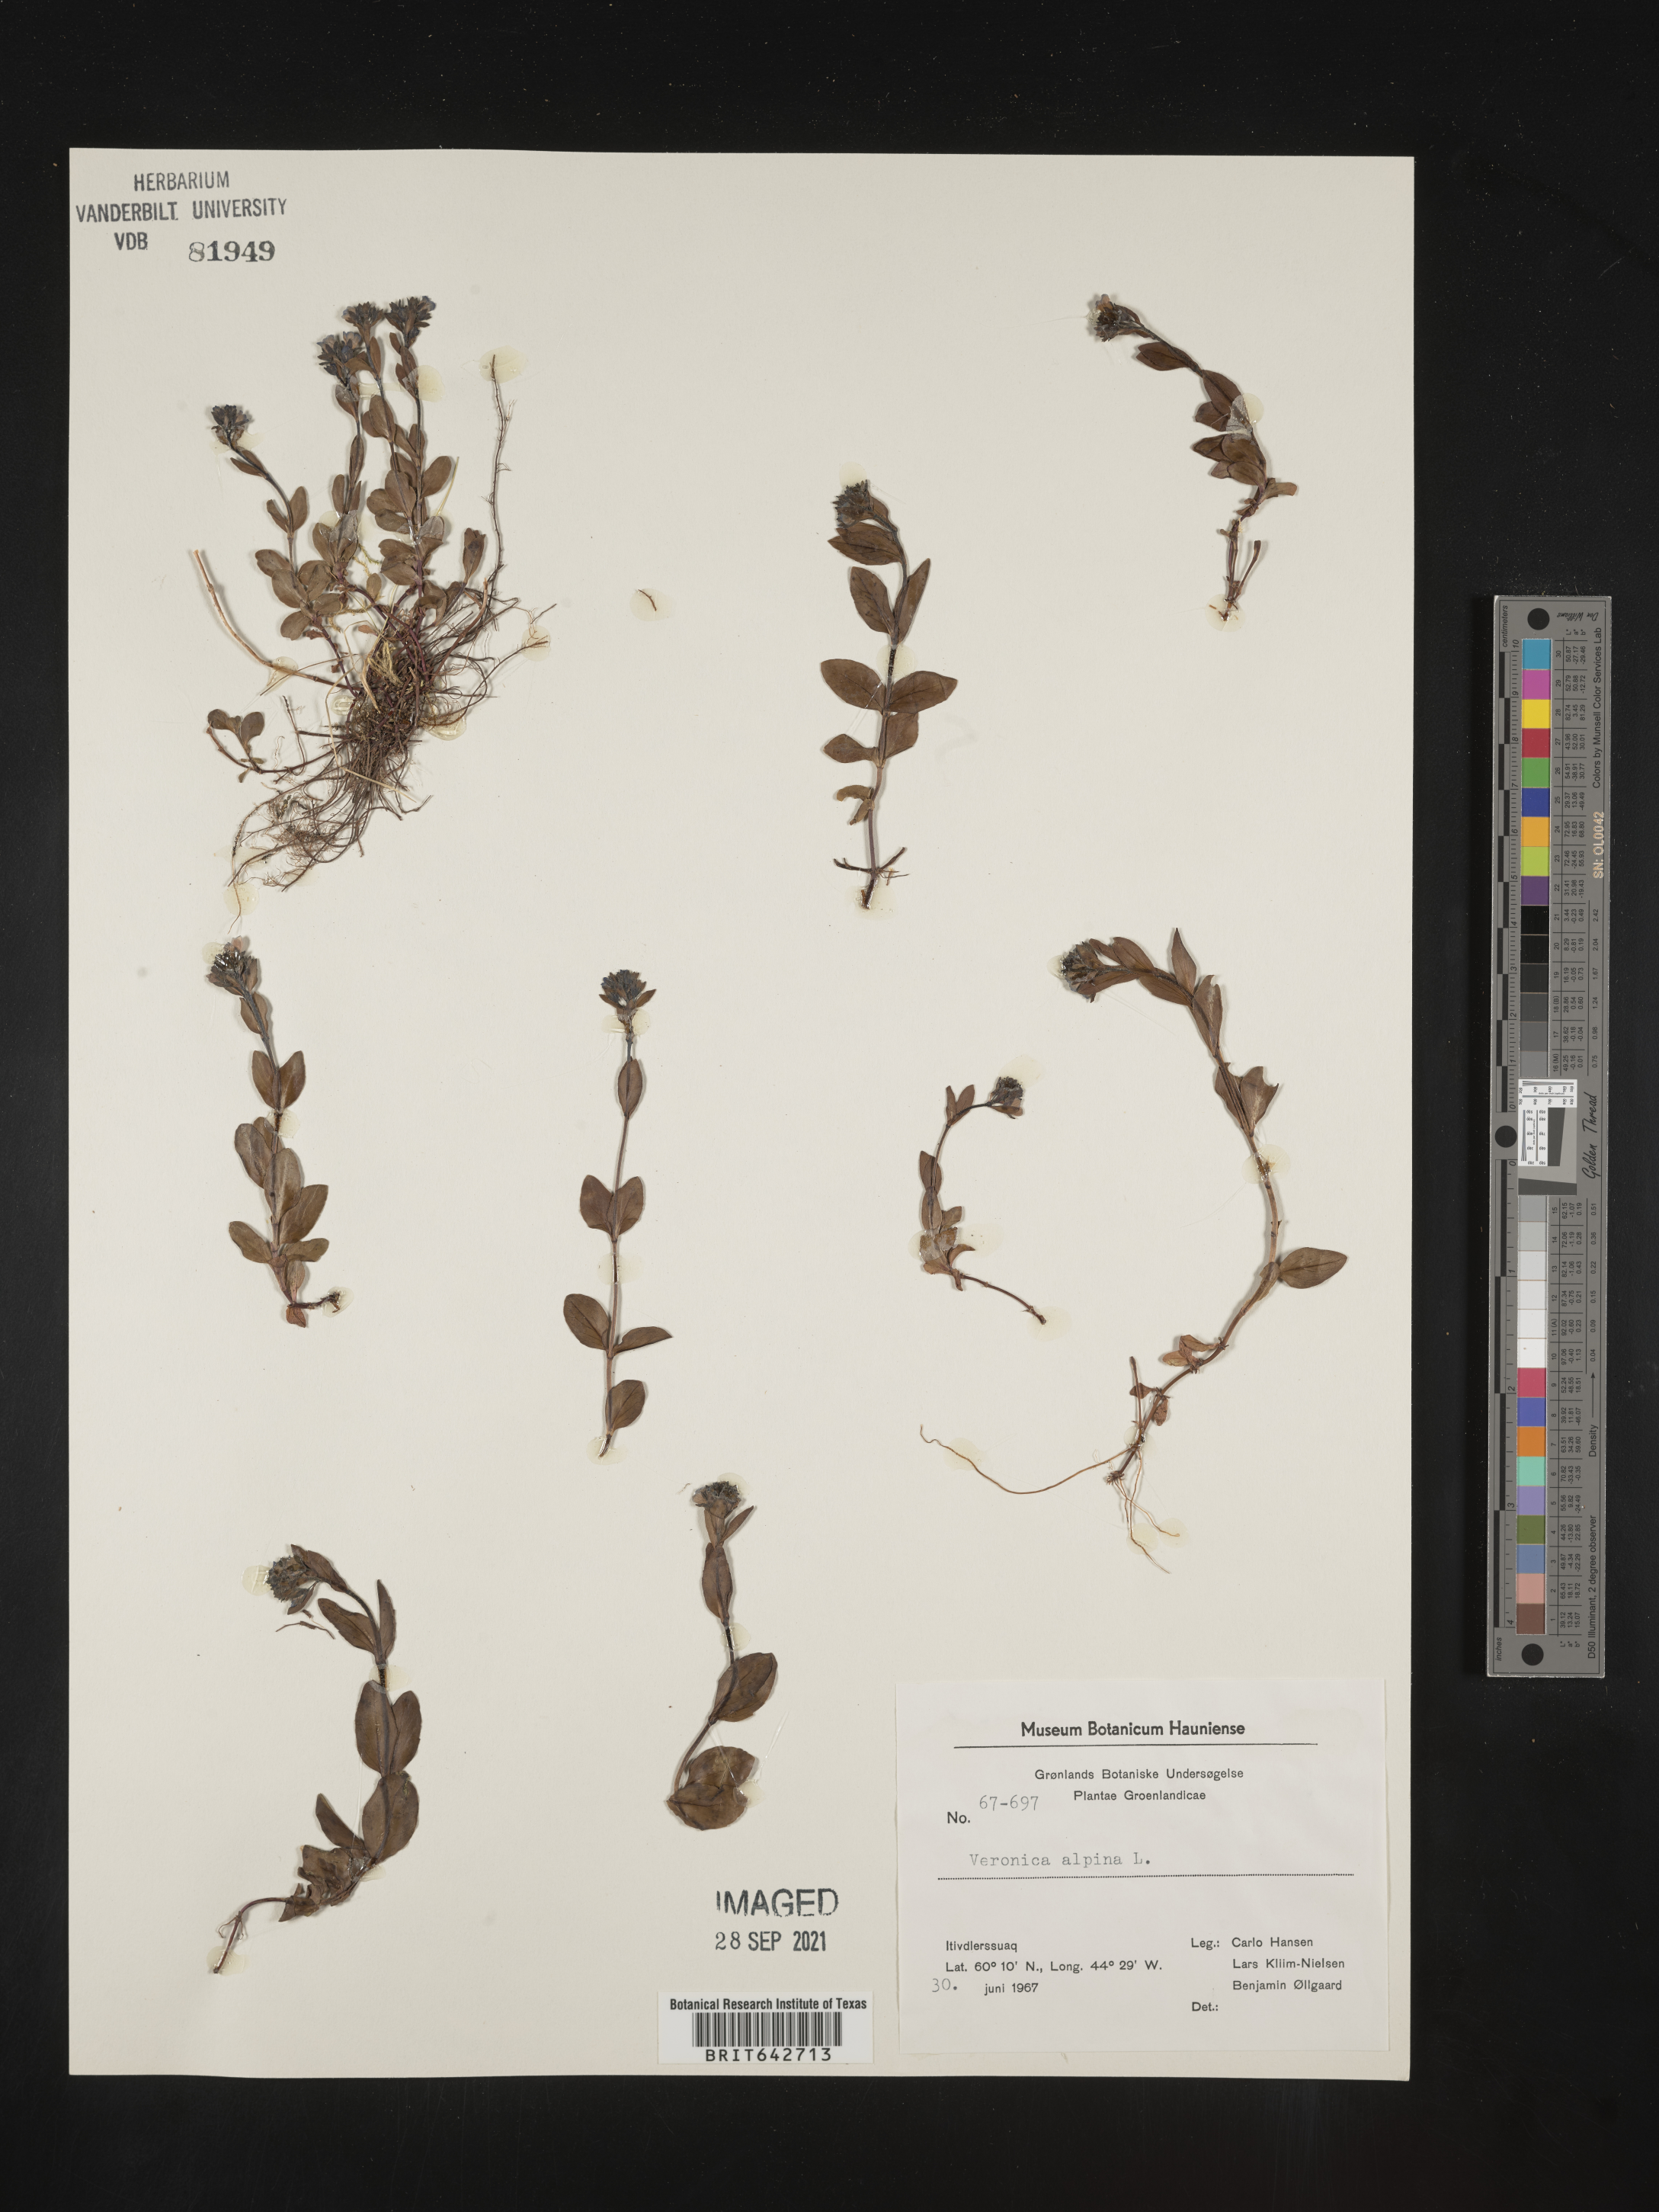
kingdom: Plantae
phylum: Tracheophyta
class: Magnoliopsida
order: Lamiales
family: Plantaginaceae
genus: Veronica
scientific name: Veronica
